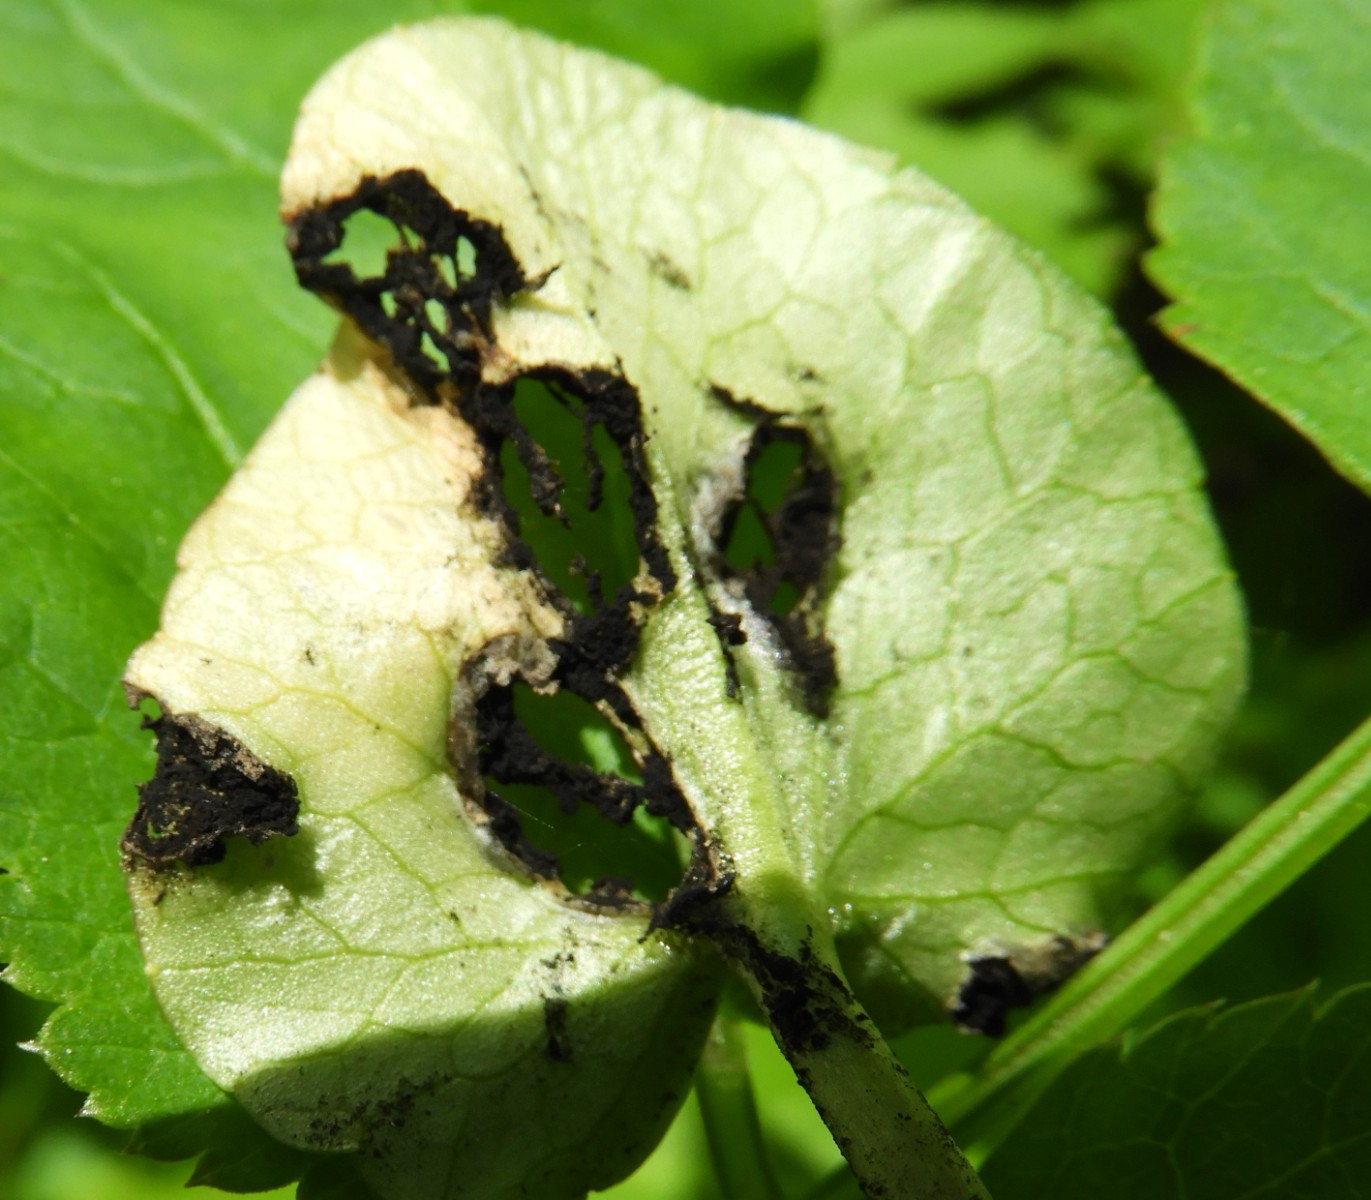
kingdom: Fungi
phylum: Basidiomycota
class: Ustilaginomycetes
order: Urocystidales
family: Urocystidaceae
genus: Urocystis
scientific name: Urocystis ficariae
